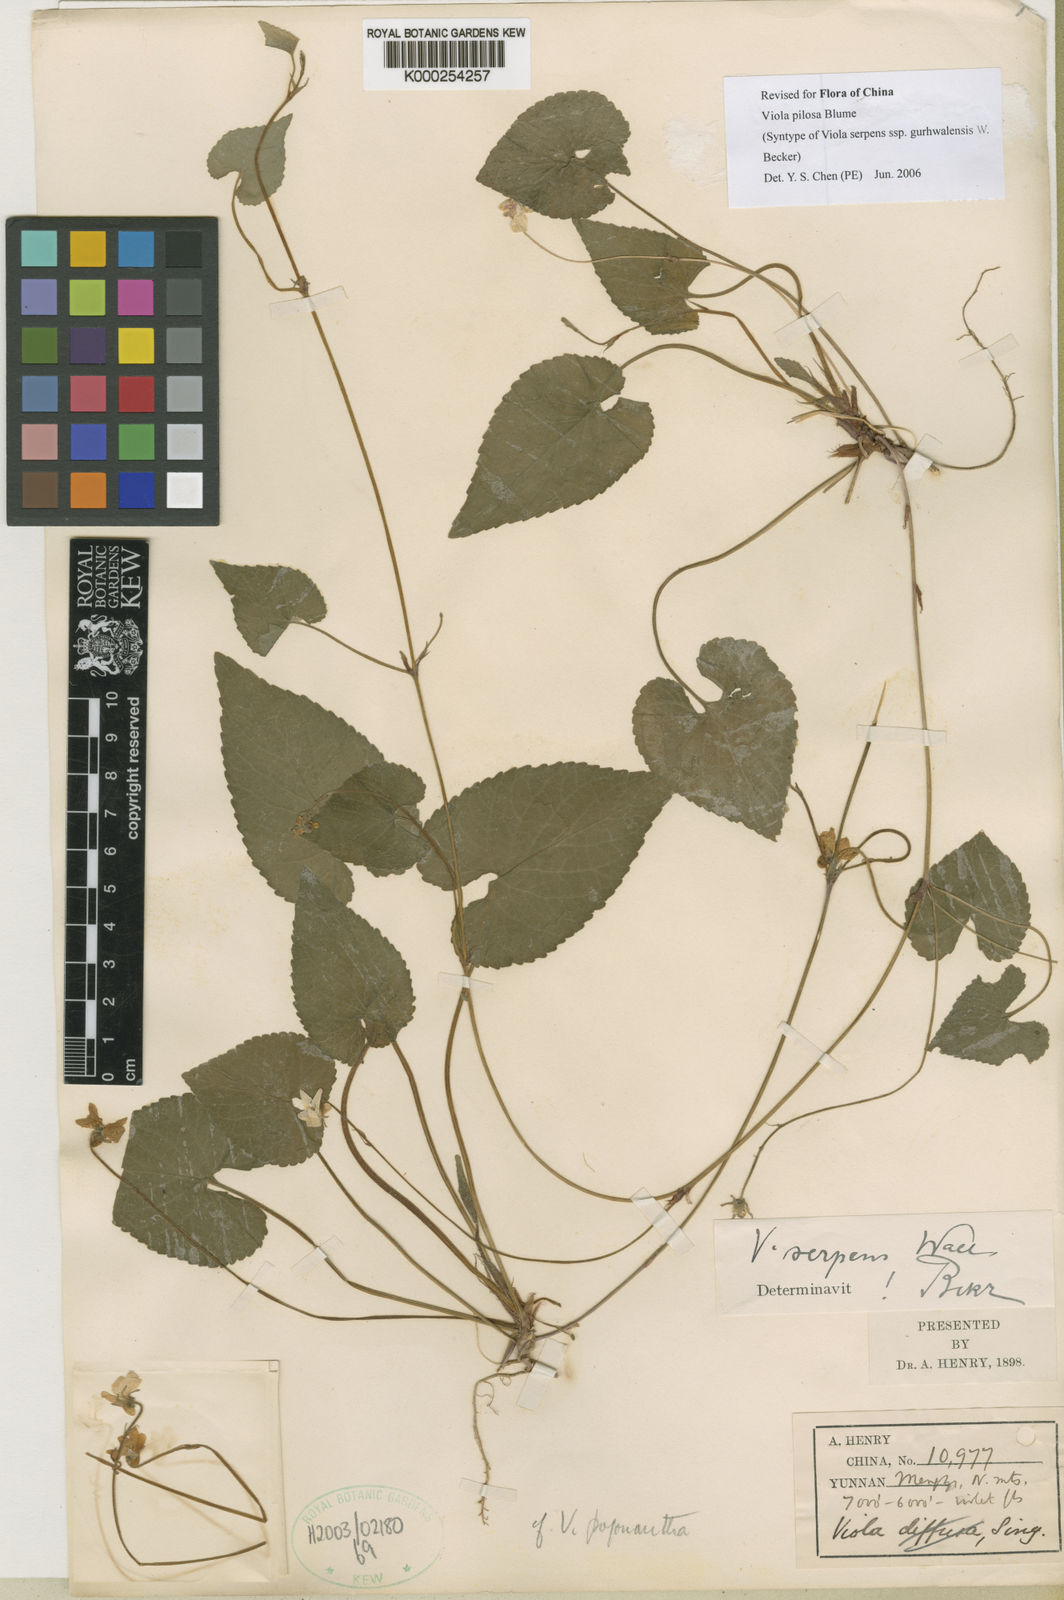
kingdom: Plantae
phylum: Tracheophyta
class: Magnoliopsida
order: Malpighiales
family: Violaceae
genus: Viola
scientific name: Viola
